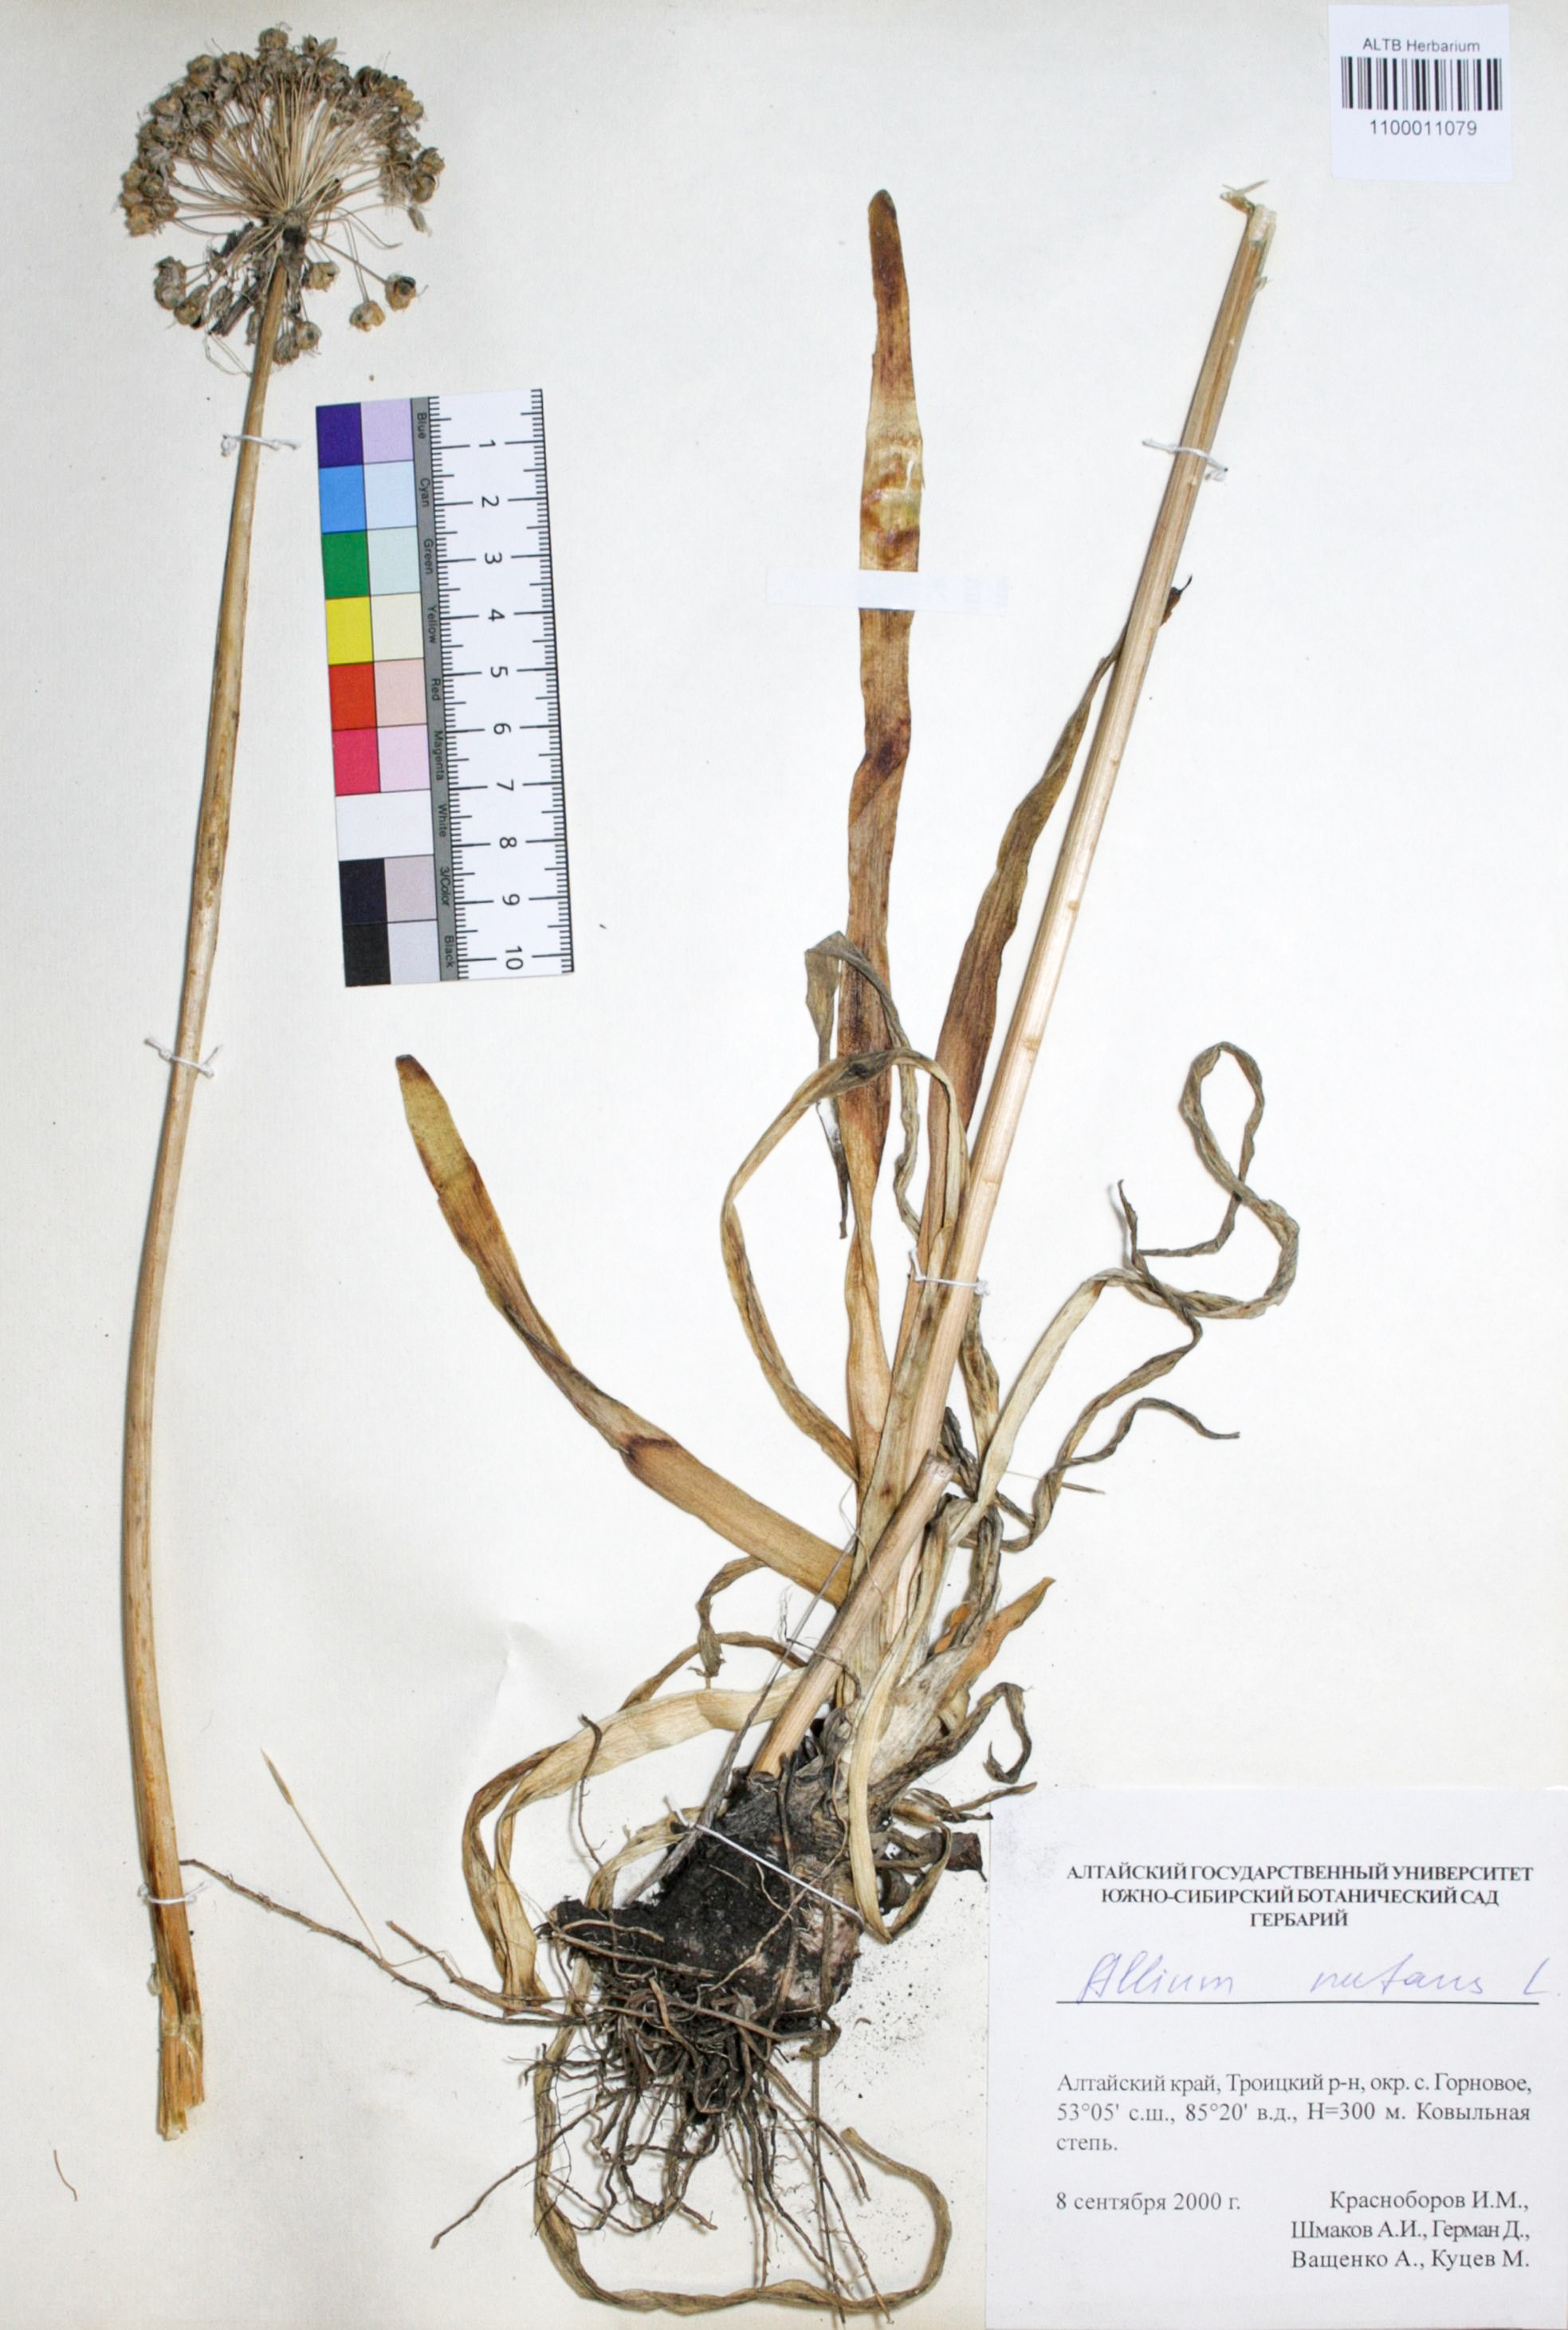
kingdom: Plantae
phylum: Tracheophyta
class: Liliopsida
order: Asparagales
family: Amaryllidaceae
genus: Allium
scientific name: Allium nutans
